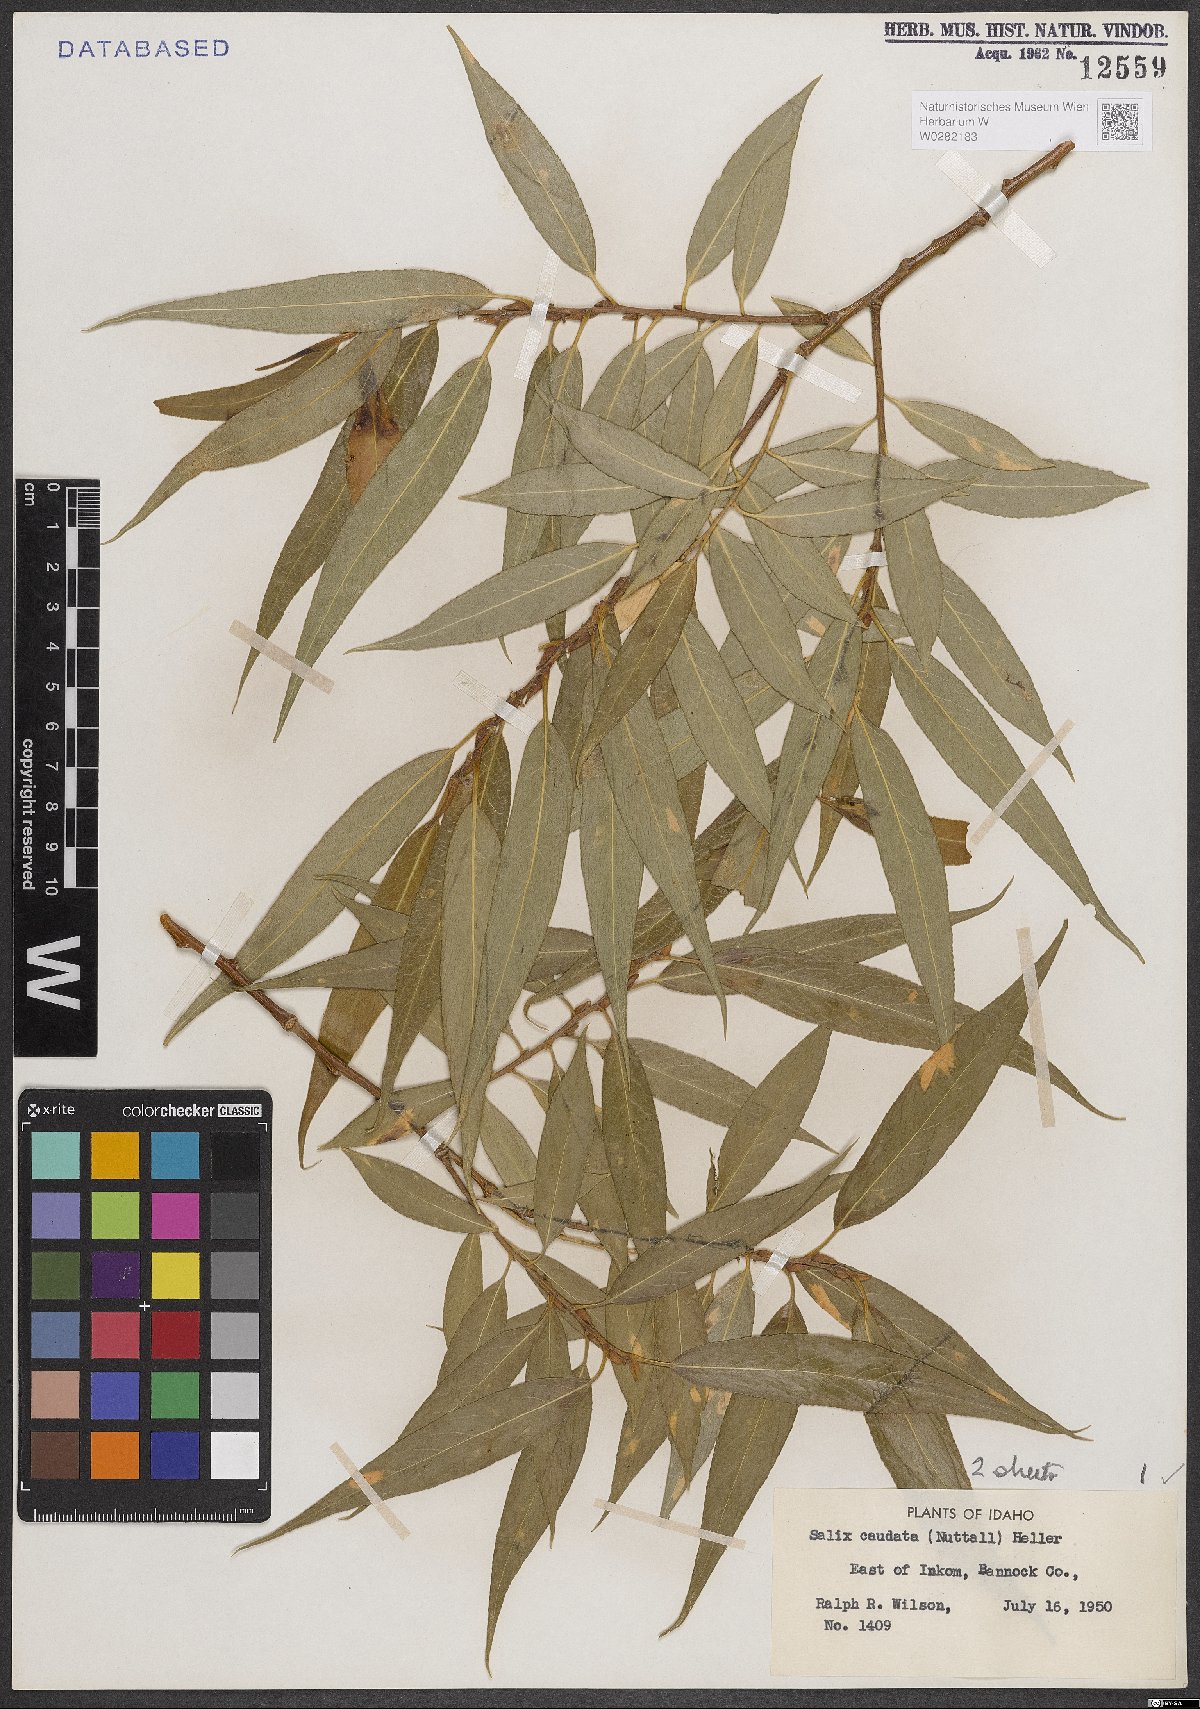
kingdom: Plantae
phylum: Tracheophyta
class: Magnoliopsida
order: Malpighiales
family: Salicaceae
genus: Salix
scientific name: Salix lucida
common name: Shining willow
